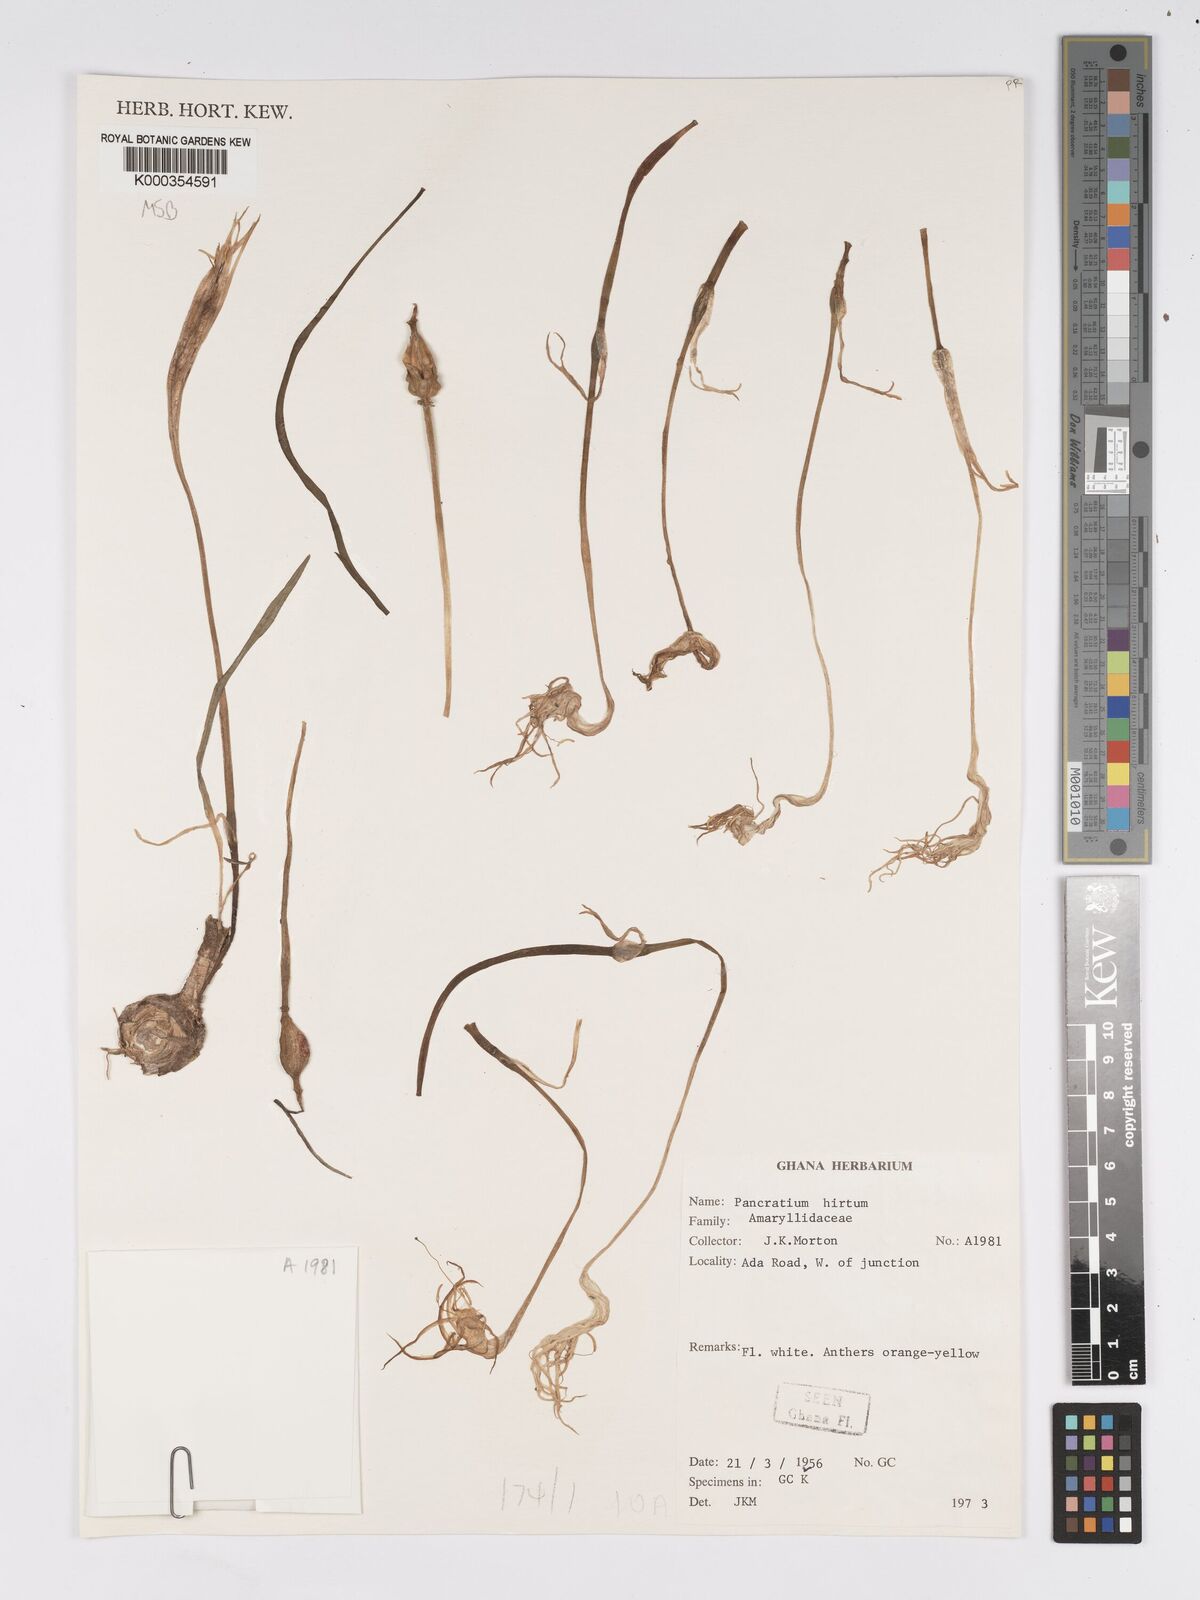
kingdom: Plantae
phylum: Tracheophyta
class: Liliopsida
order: Asparagales
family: Amaryllidaceae
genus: Pancratium
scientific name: Pancratium tenuifolium
